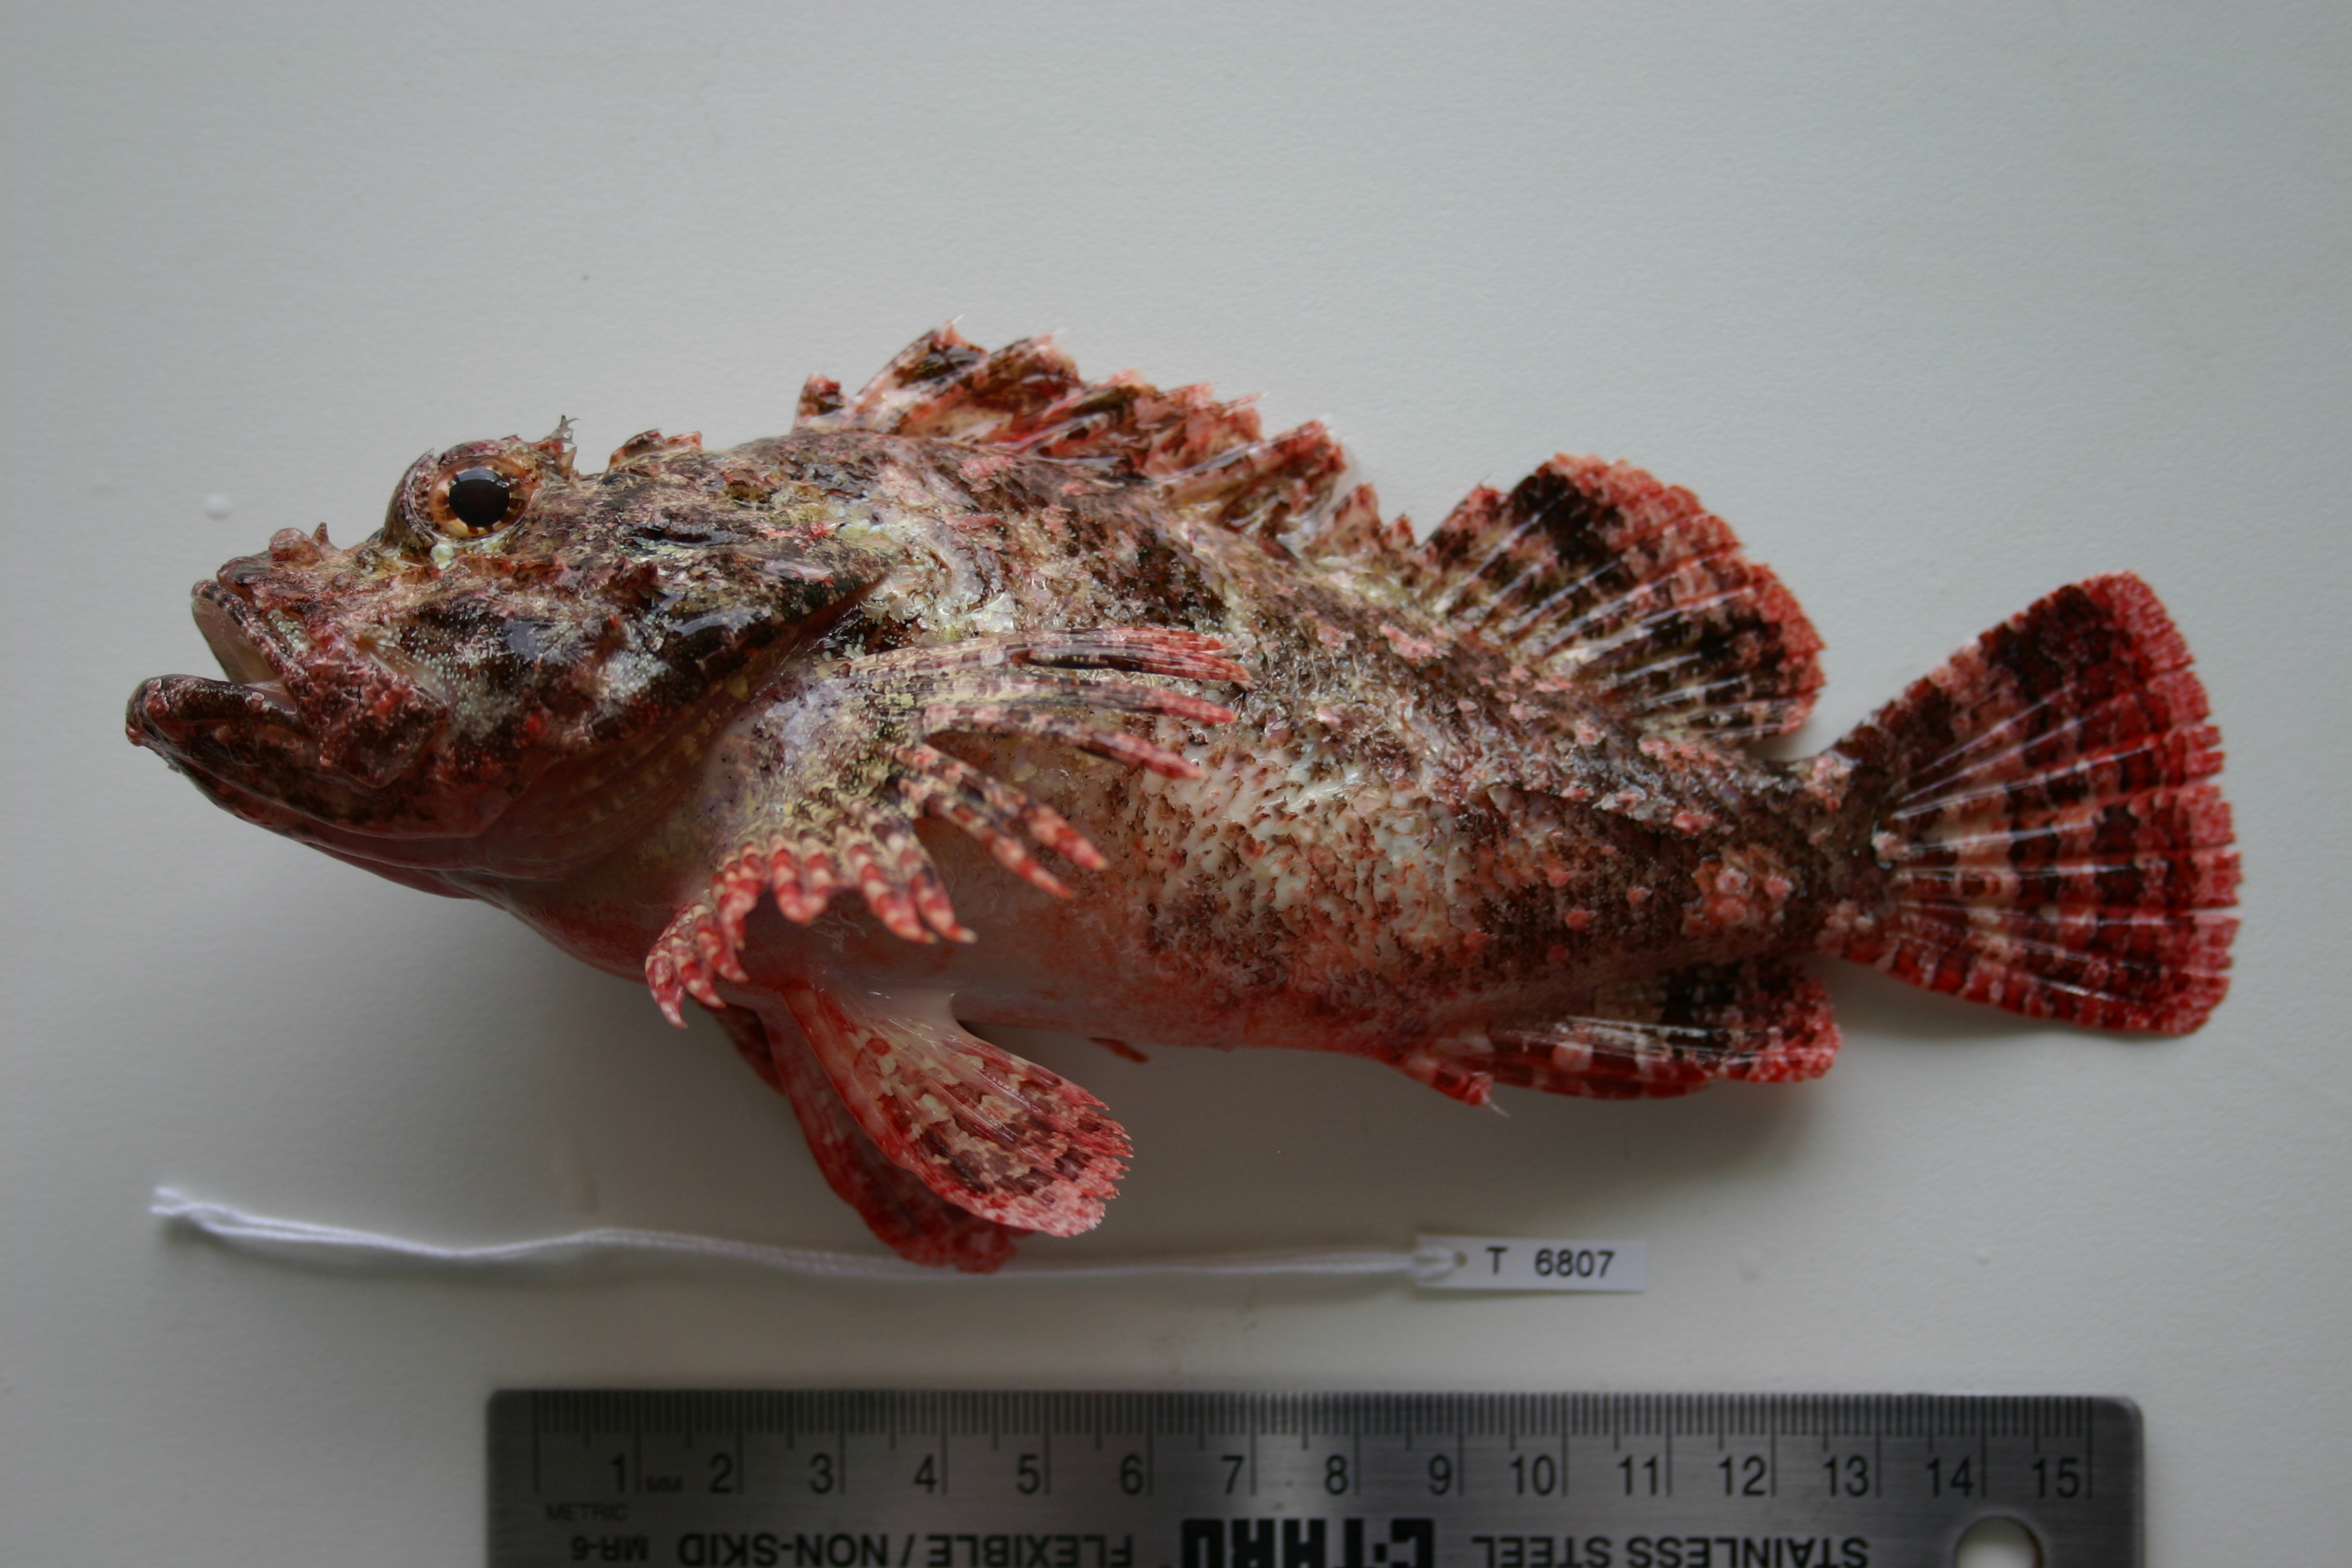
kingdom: Animalia
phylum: Chordata
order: Scorpaeniformes
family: Scorpaenidae
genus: Scorpaenopsis
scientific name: Scorpaenopsis possi
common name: Poss's scorpionfish
